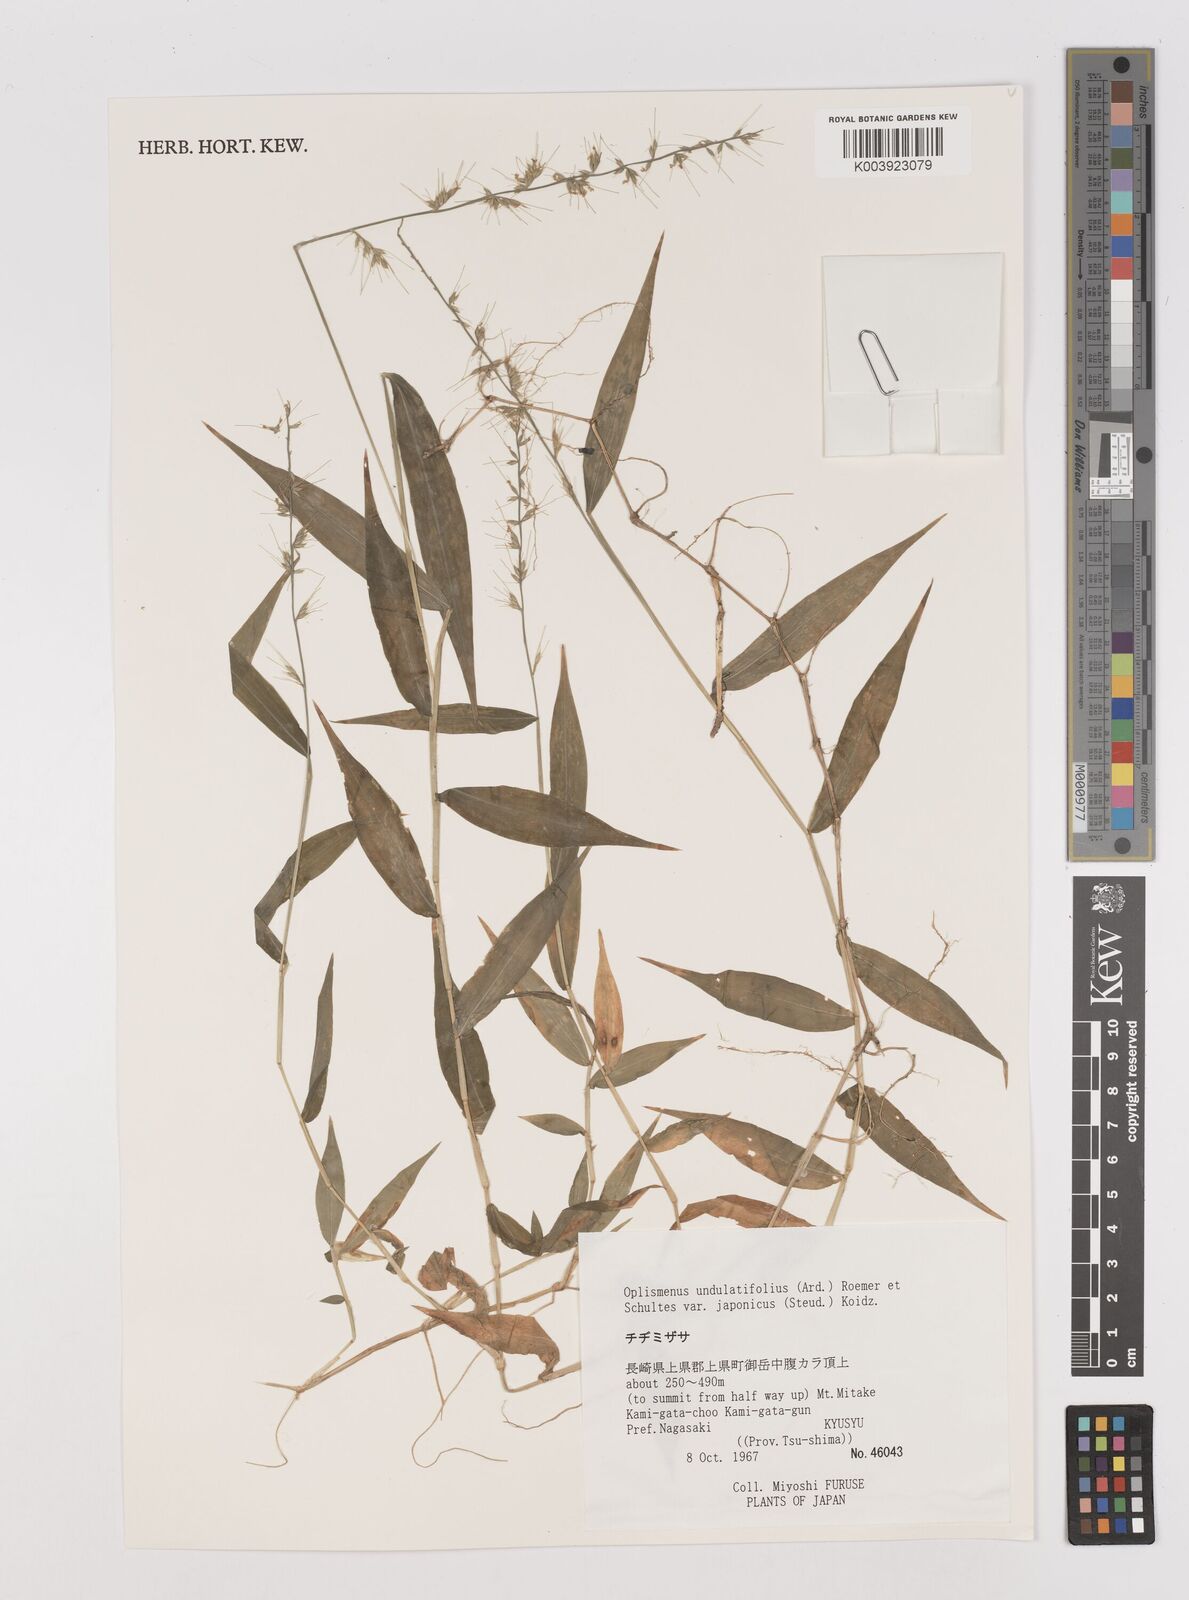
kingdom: Plantae
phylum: Tracheophyta
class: Liliopsida
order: Poales
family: Poaceae
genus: Oplismenus
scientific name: Oplismenus undulatifolius
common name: Wavyleaf basketgrass
